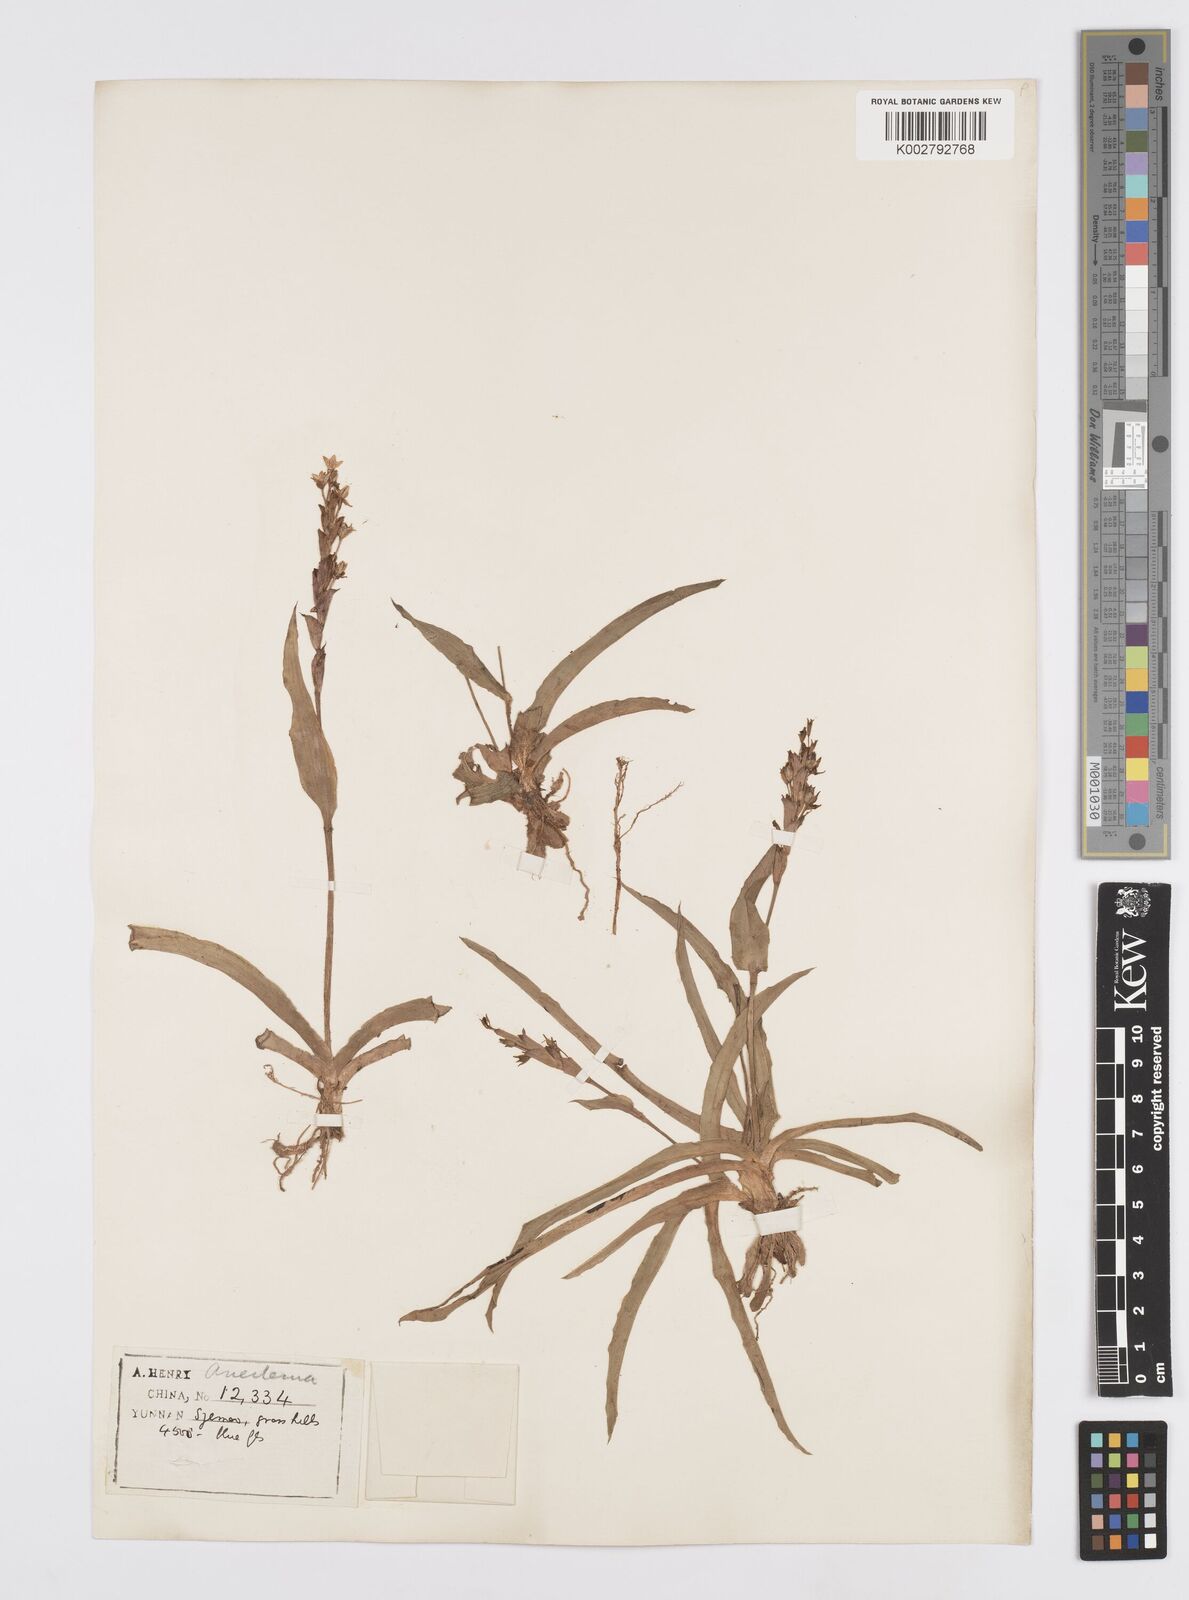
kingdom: Plantae
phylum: Tracheophyta
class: Liliopsida
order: Commelinales
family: Commelinaceae
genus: Murdannia
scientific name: Murdannia edulis
